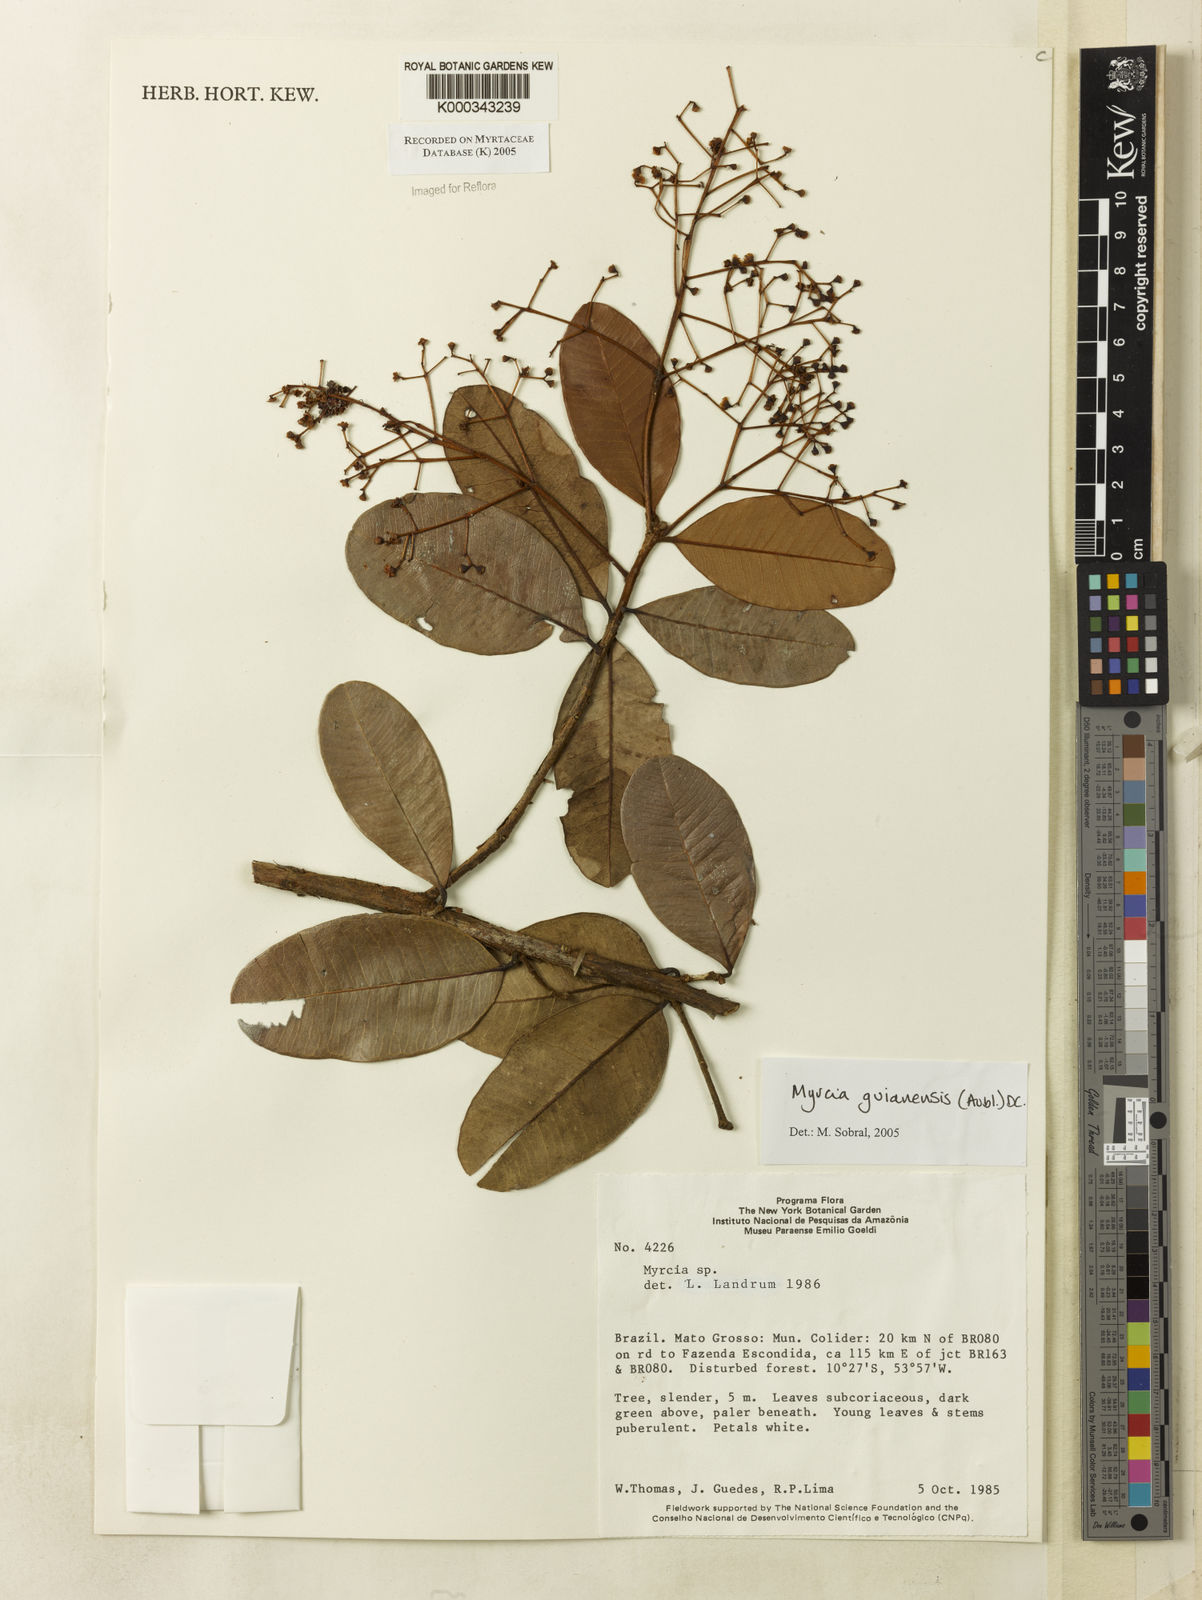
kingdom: Plantae
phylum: Tracheophyta
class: Magnoliopsida
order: Myrtales
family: Myrtaceae
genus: Myrcia
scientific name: Myrcia guianensis
